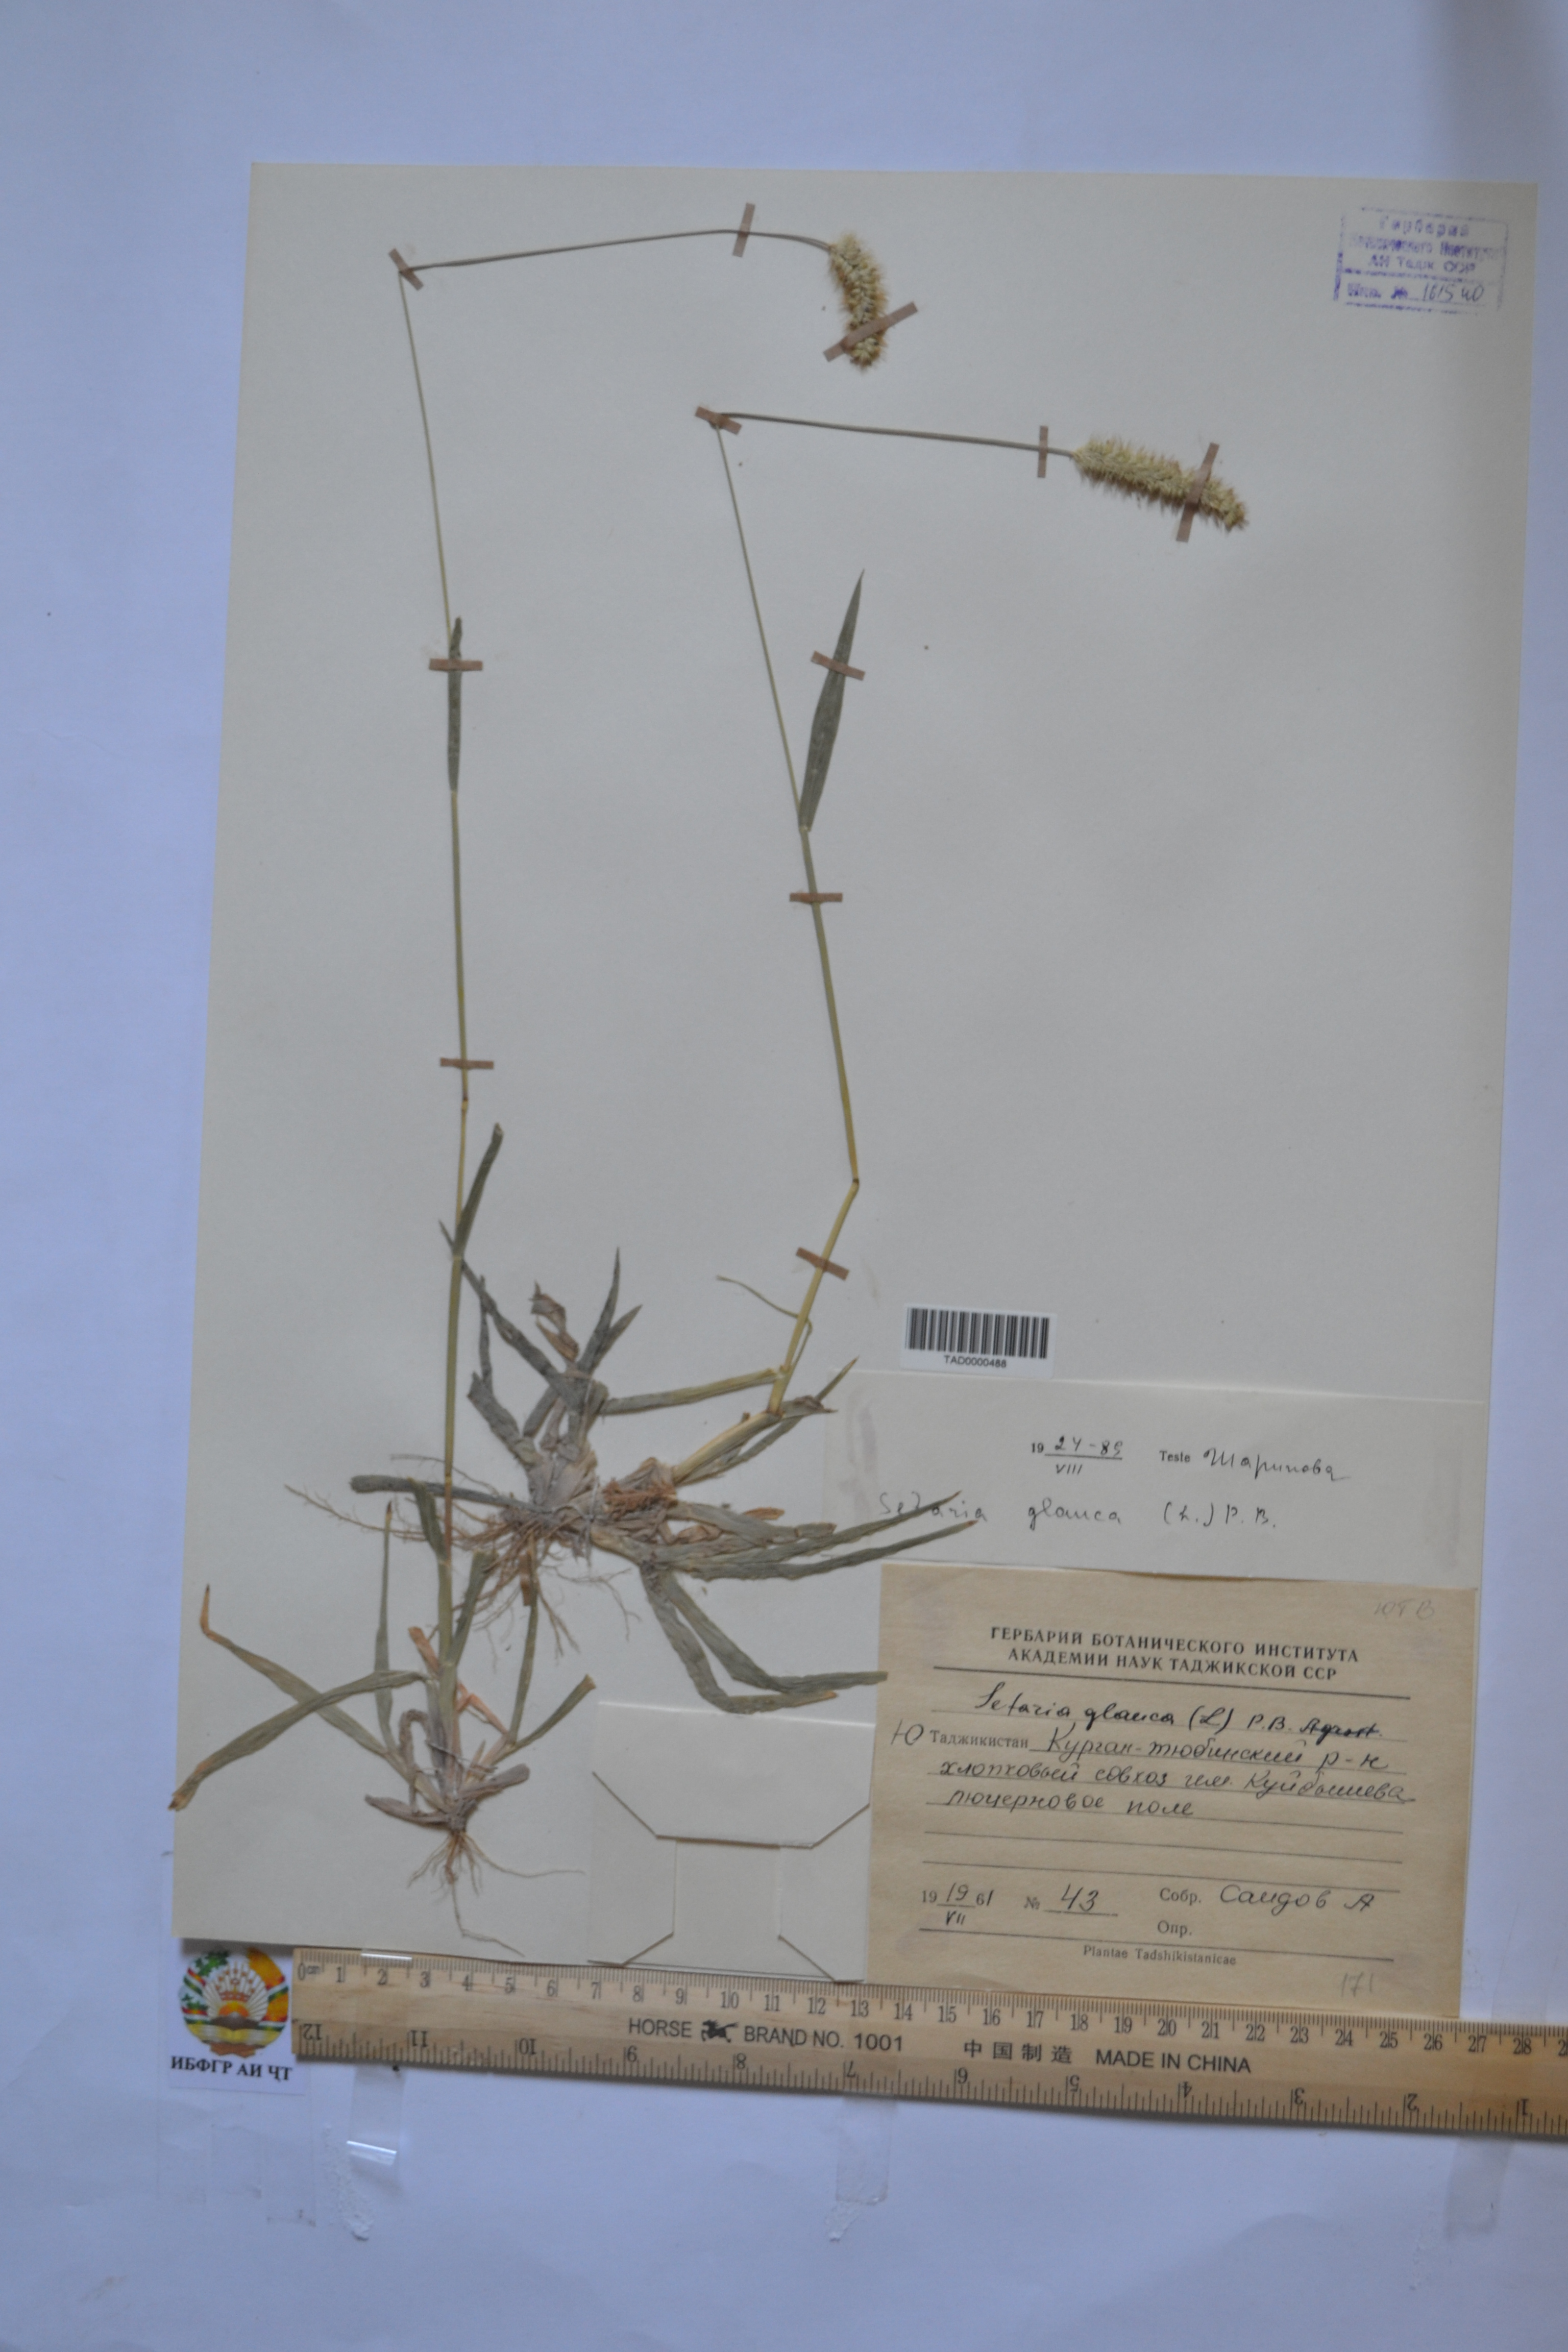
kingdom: Plantae
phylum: Tracheophyta
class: Liliopsida
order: Poales
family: Poaceae
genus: Cenchrus
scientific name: Cenchrus americanus
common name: Pearl millet
